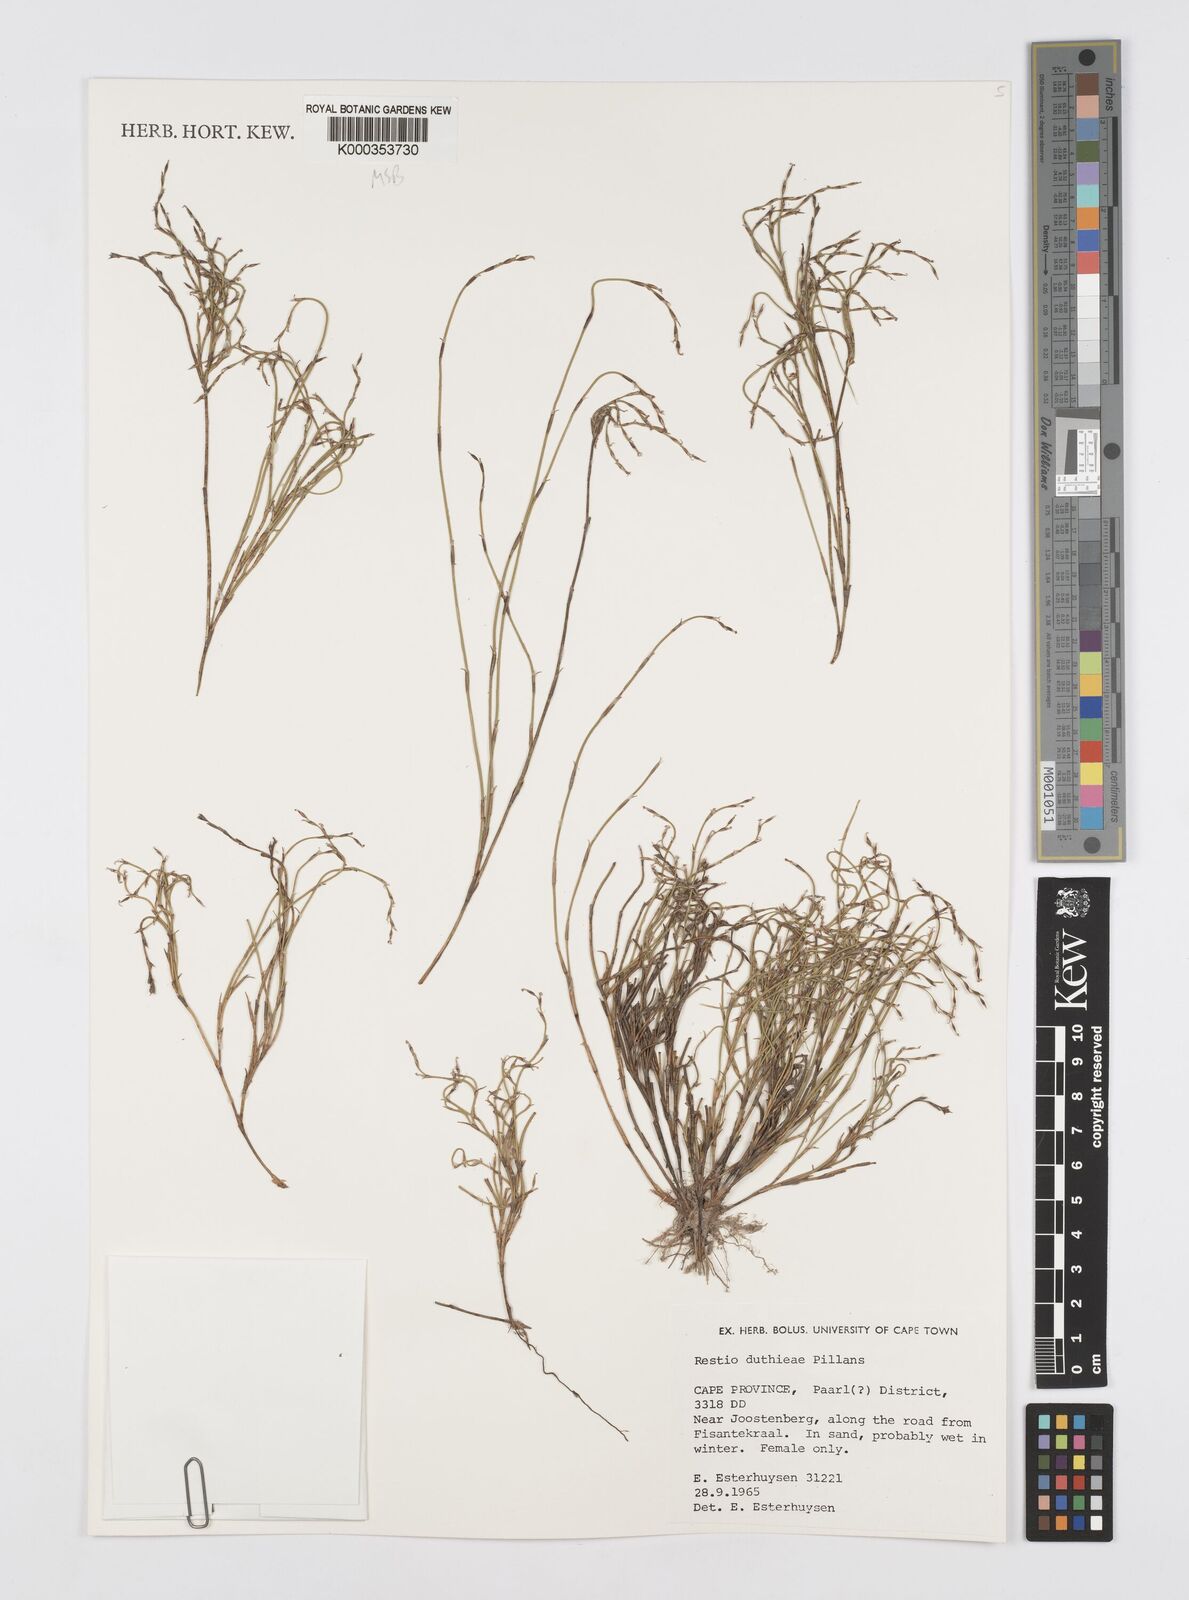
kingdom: Plantae
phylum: Tracheophyta
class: Liliopsida
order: Poales
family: Restionaceae
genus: Restio
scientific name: Restio duthieae
